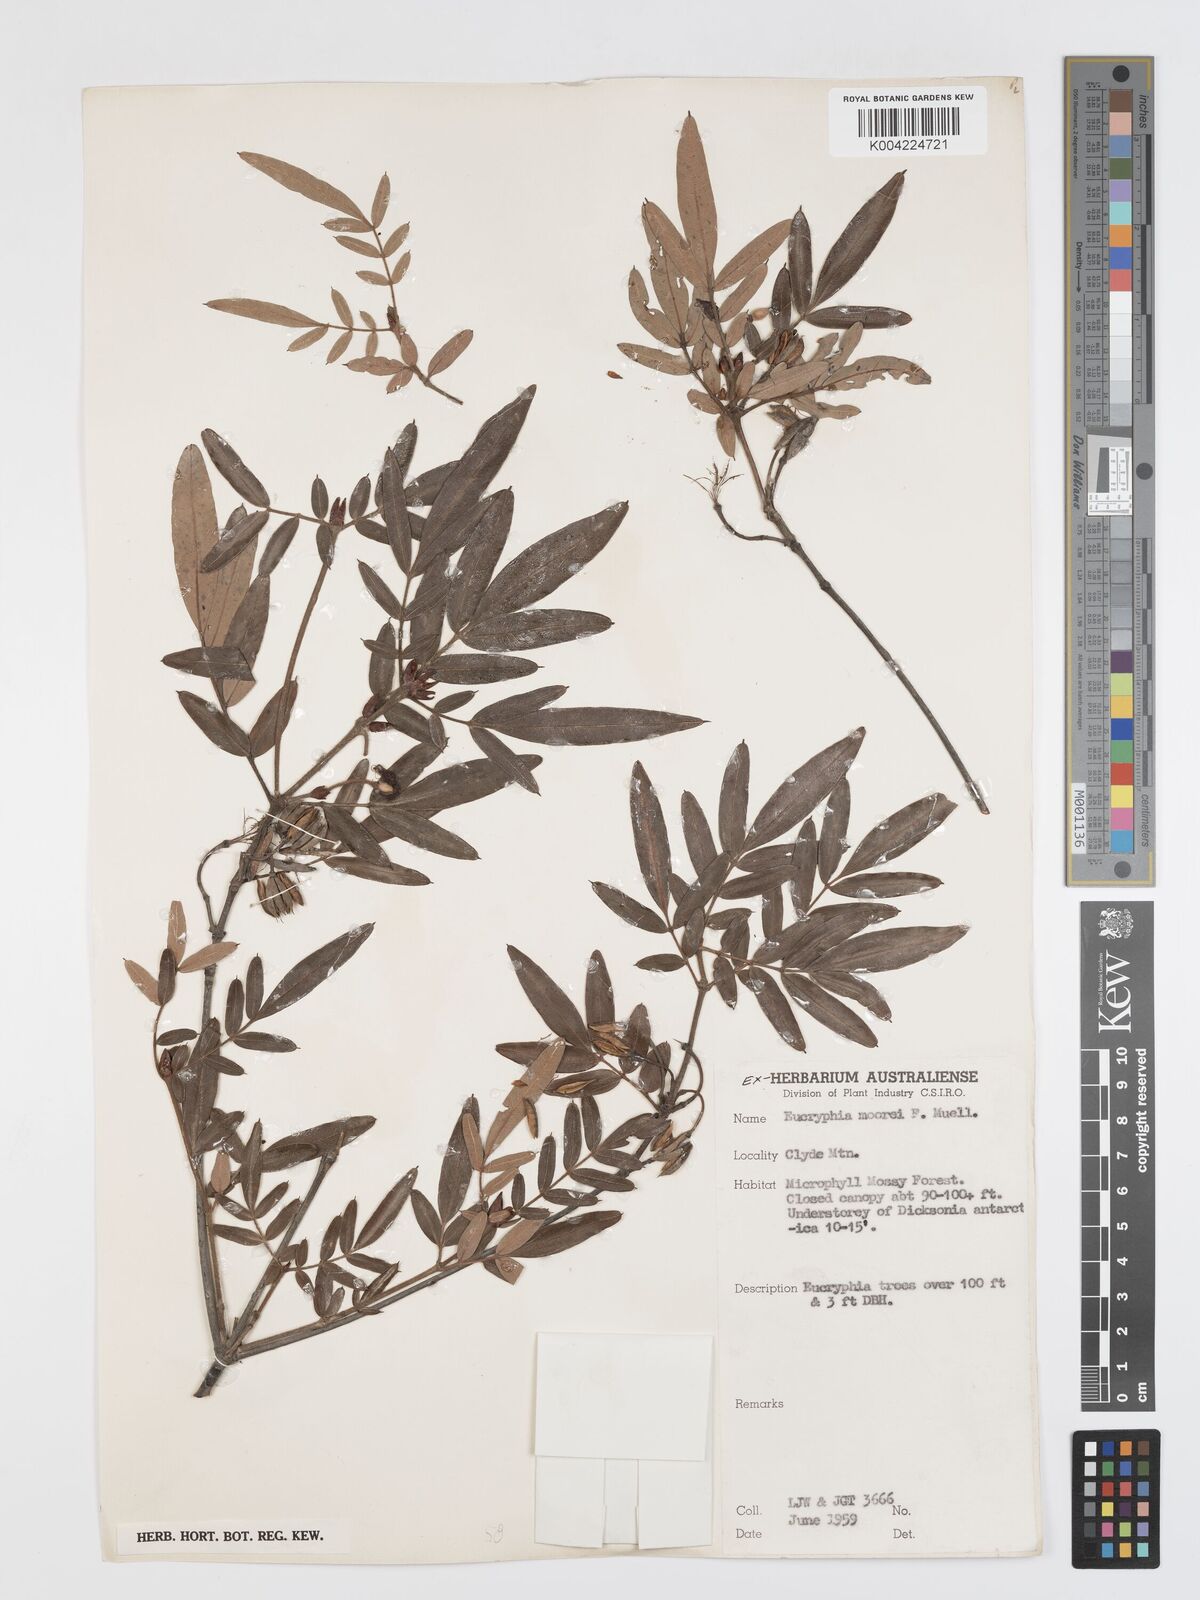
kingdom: Plantae
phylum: Tracheophyta
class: Magnoliopsida
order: Oxalidales
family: Cunoniaceae
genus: Eucryphia
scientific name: Eucryphia moorei
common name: Acacia-plum
